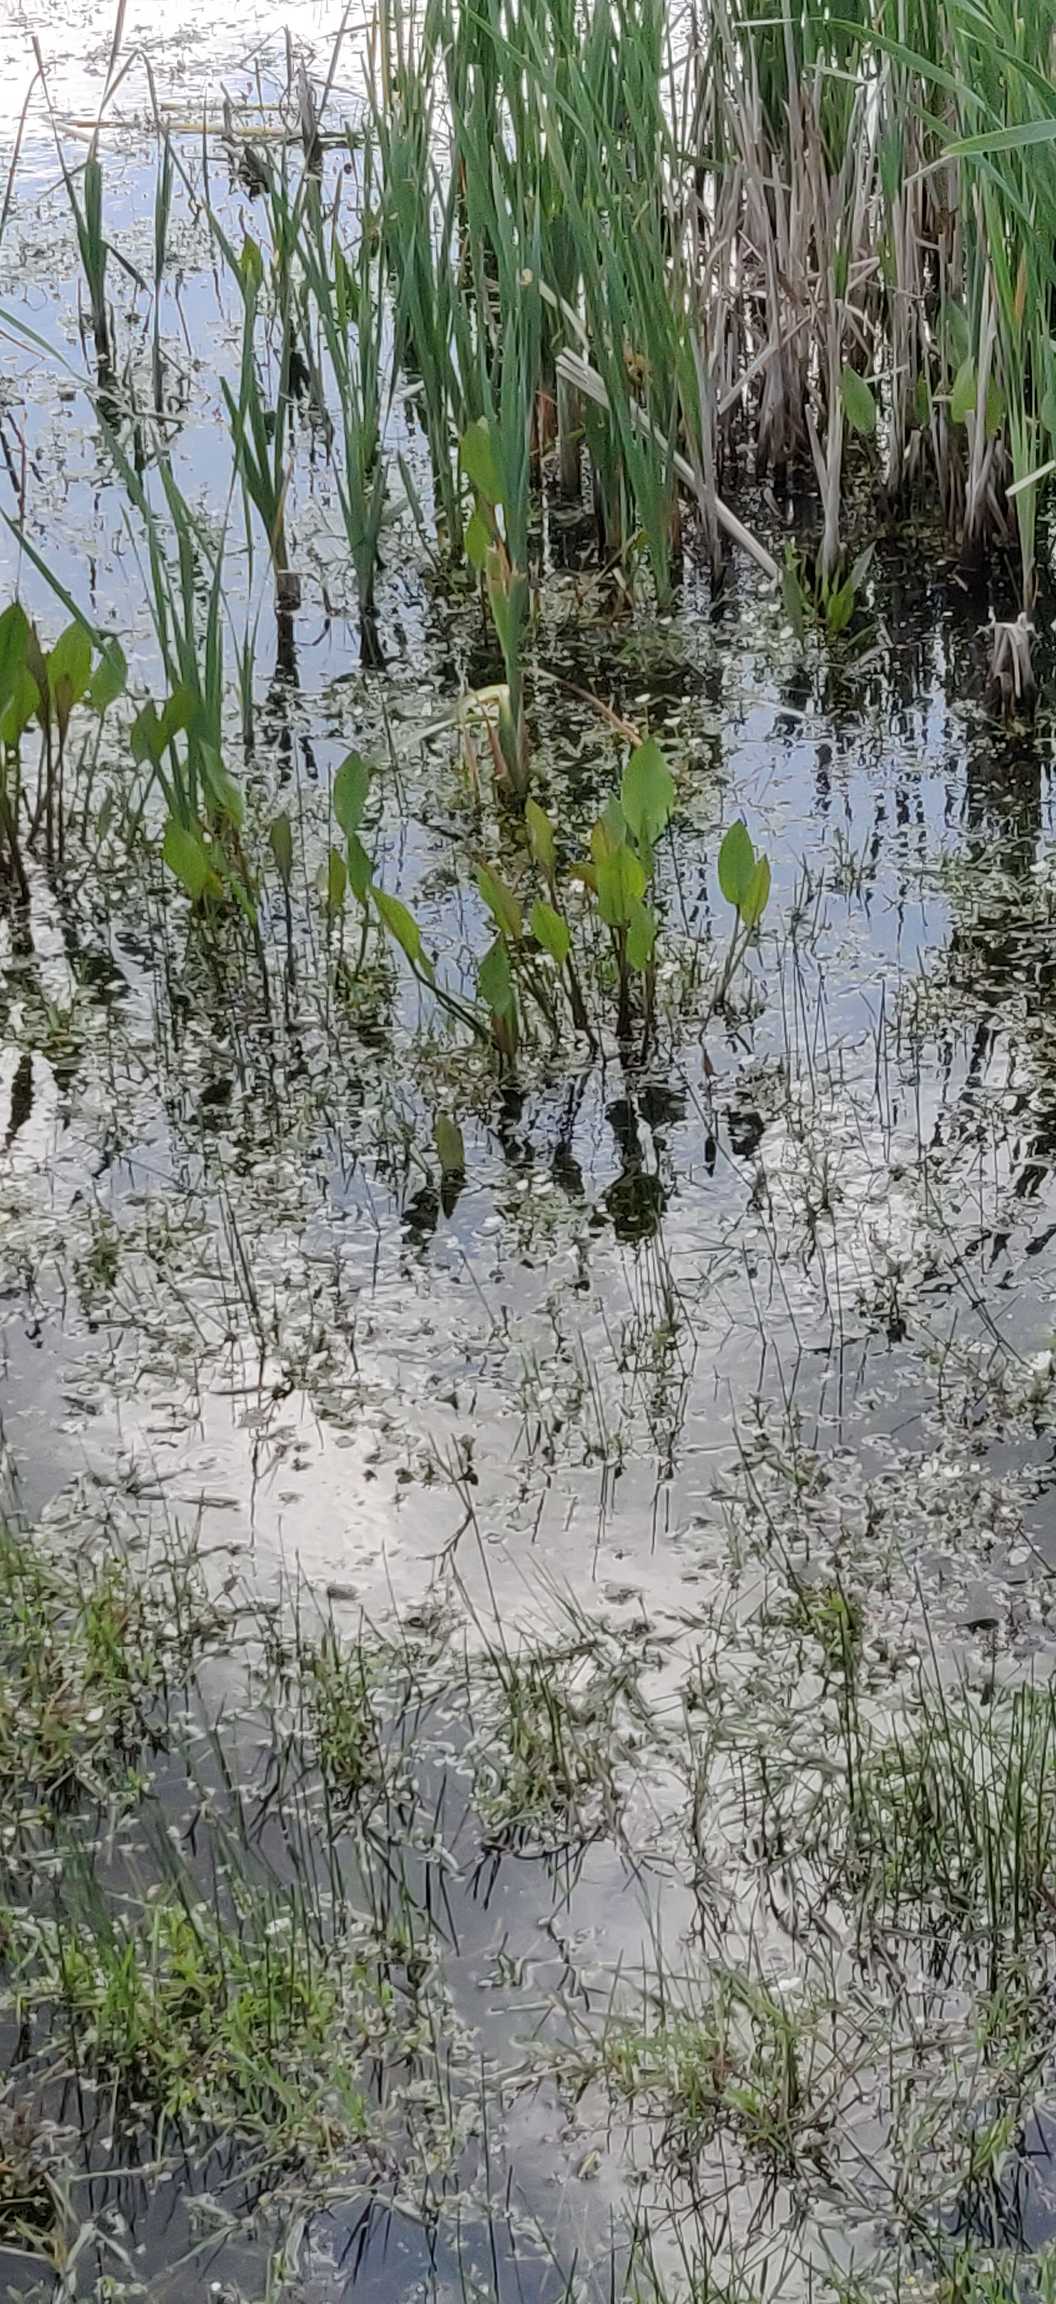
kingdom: Plantae
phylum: Tracheophyta
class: Liliopsida
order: Alismatales
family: Alismataceae
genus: Alisma
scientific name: Alisma plantago-aquatica
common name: Vejbred-skeblad
